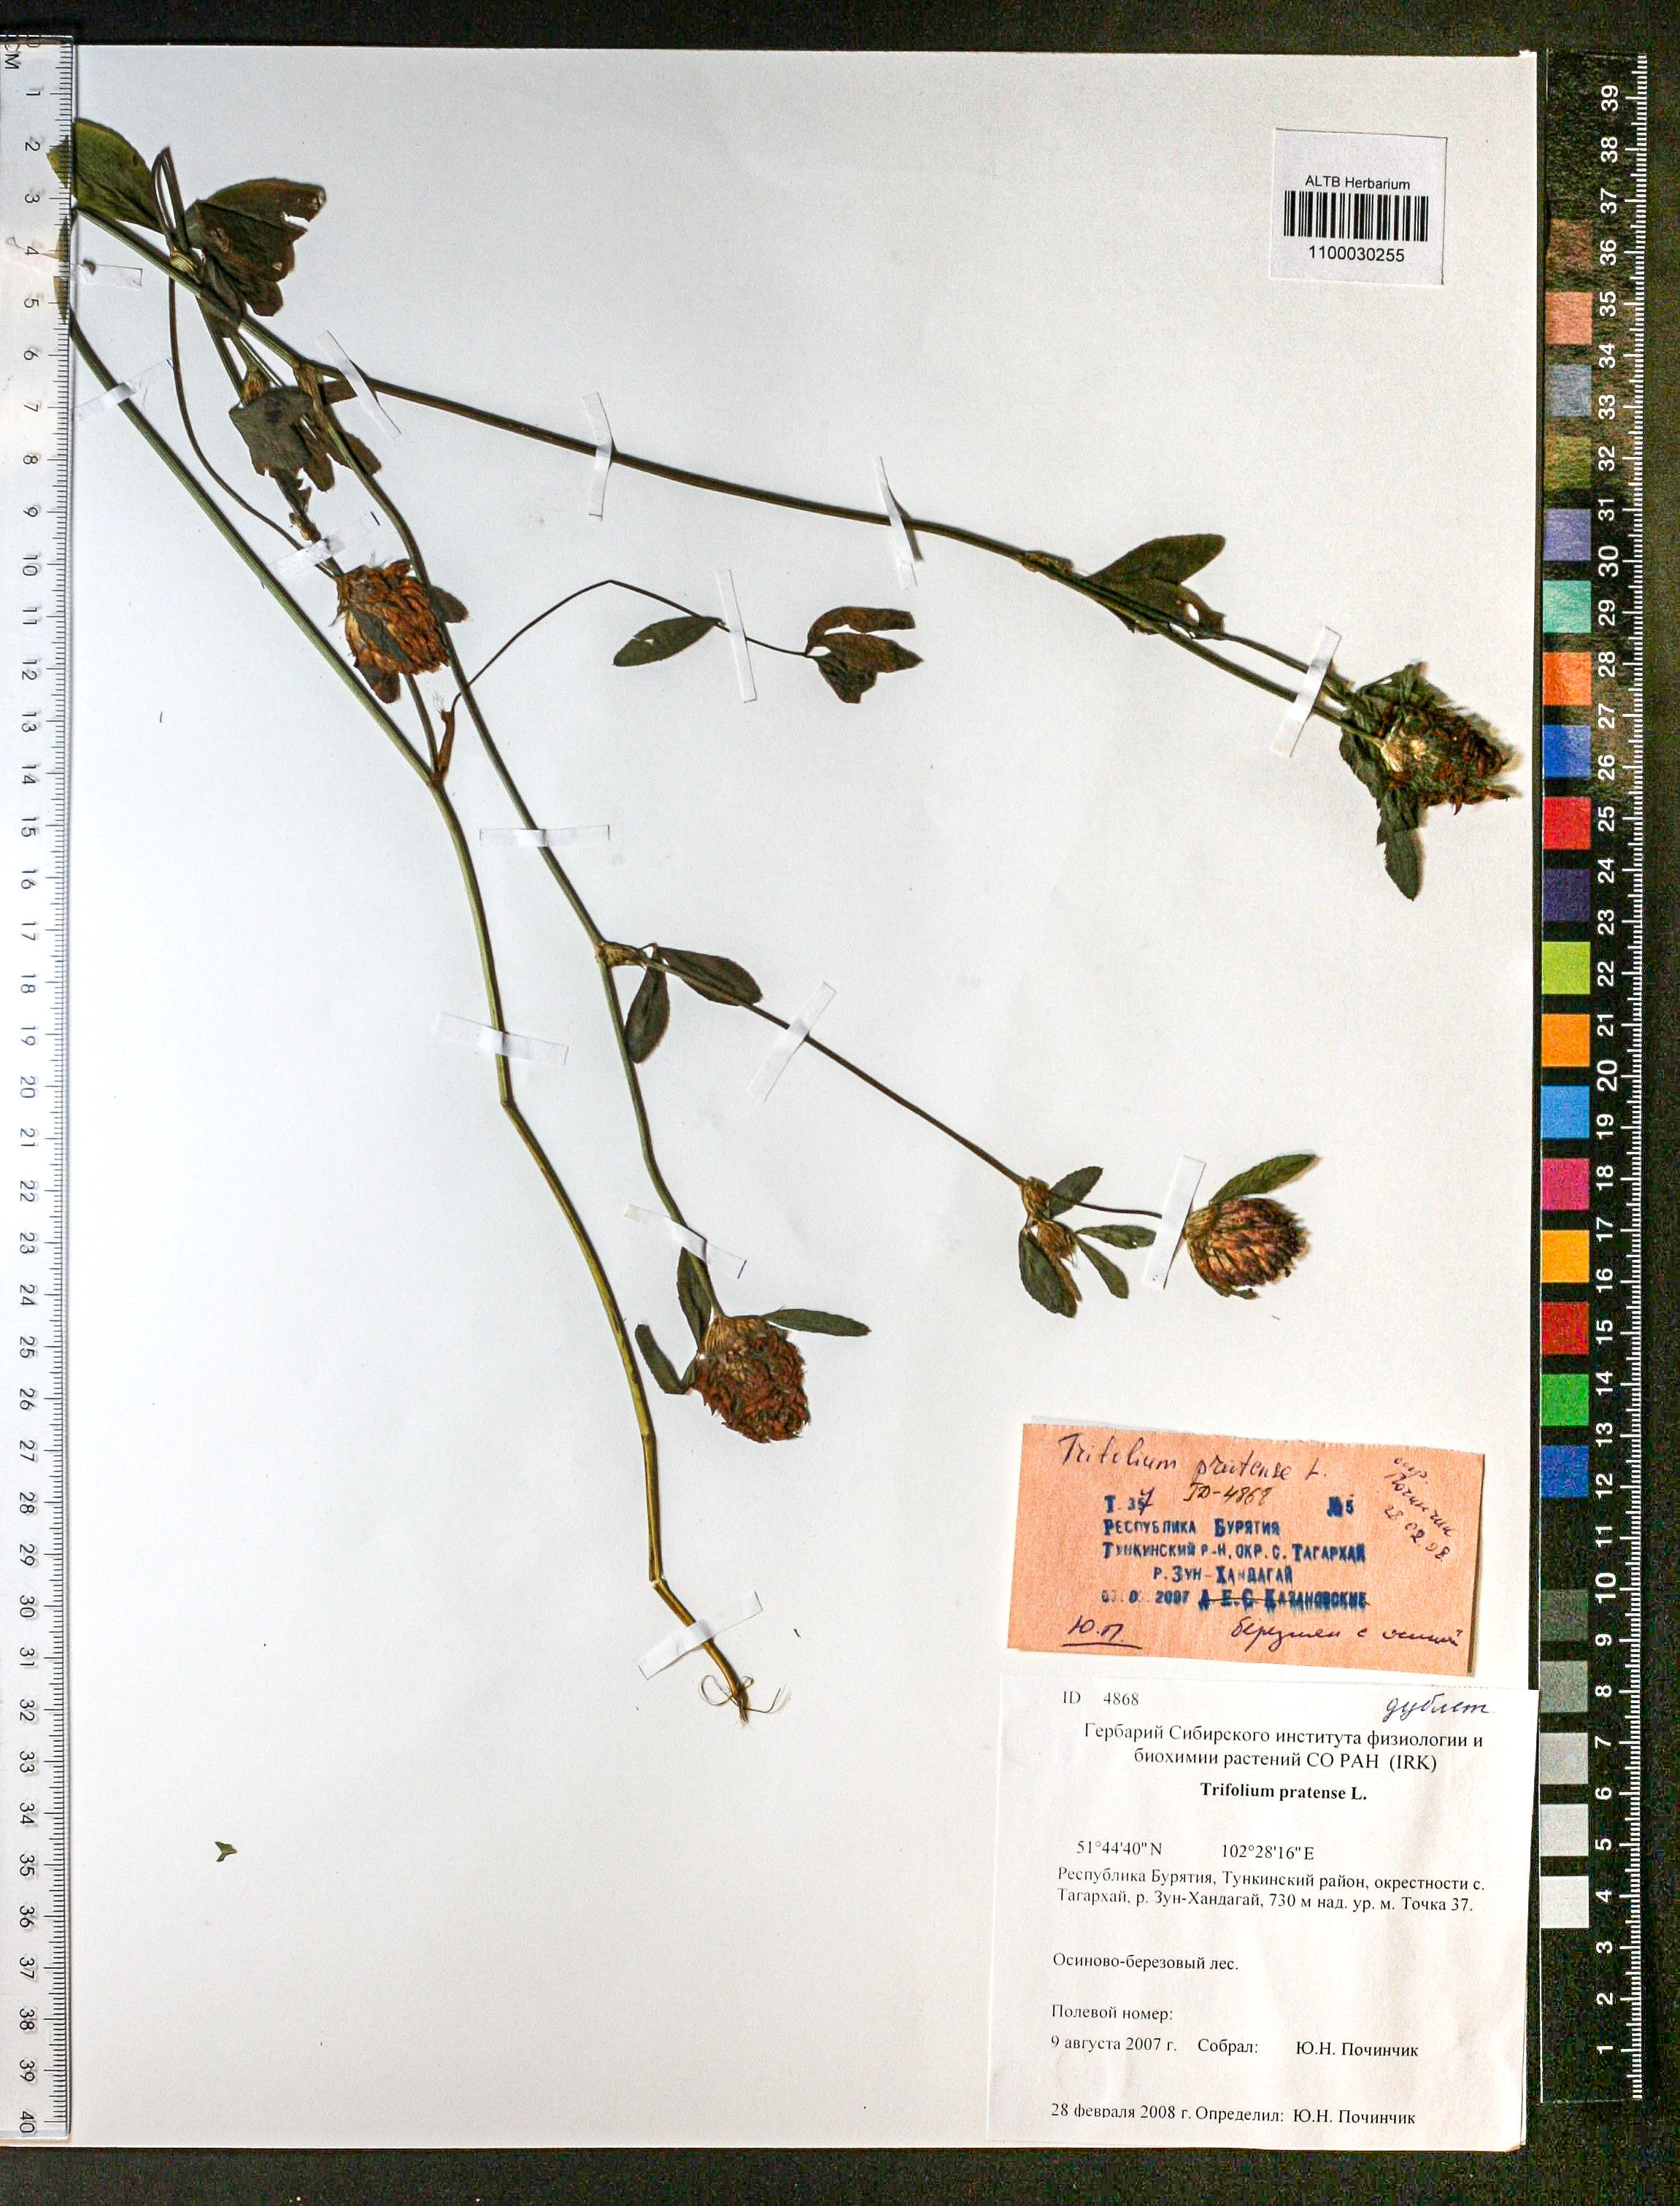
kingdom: Plantae
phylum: Tracheophyta
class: Magnoliopsida
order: Fabales
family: Fabaceae
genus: Trifolium
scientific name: Trifolium pratense
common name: Red clover
